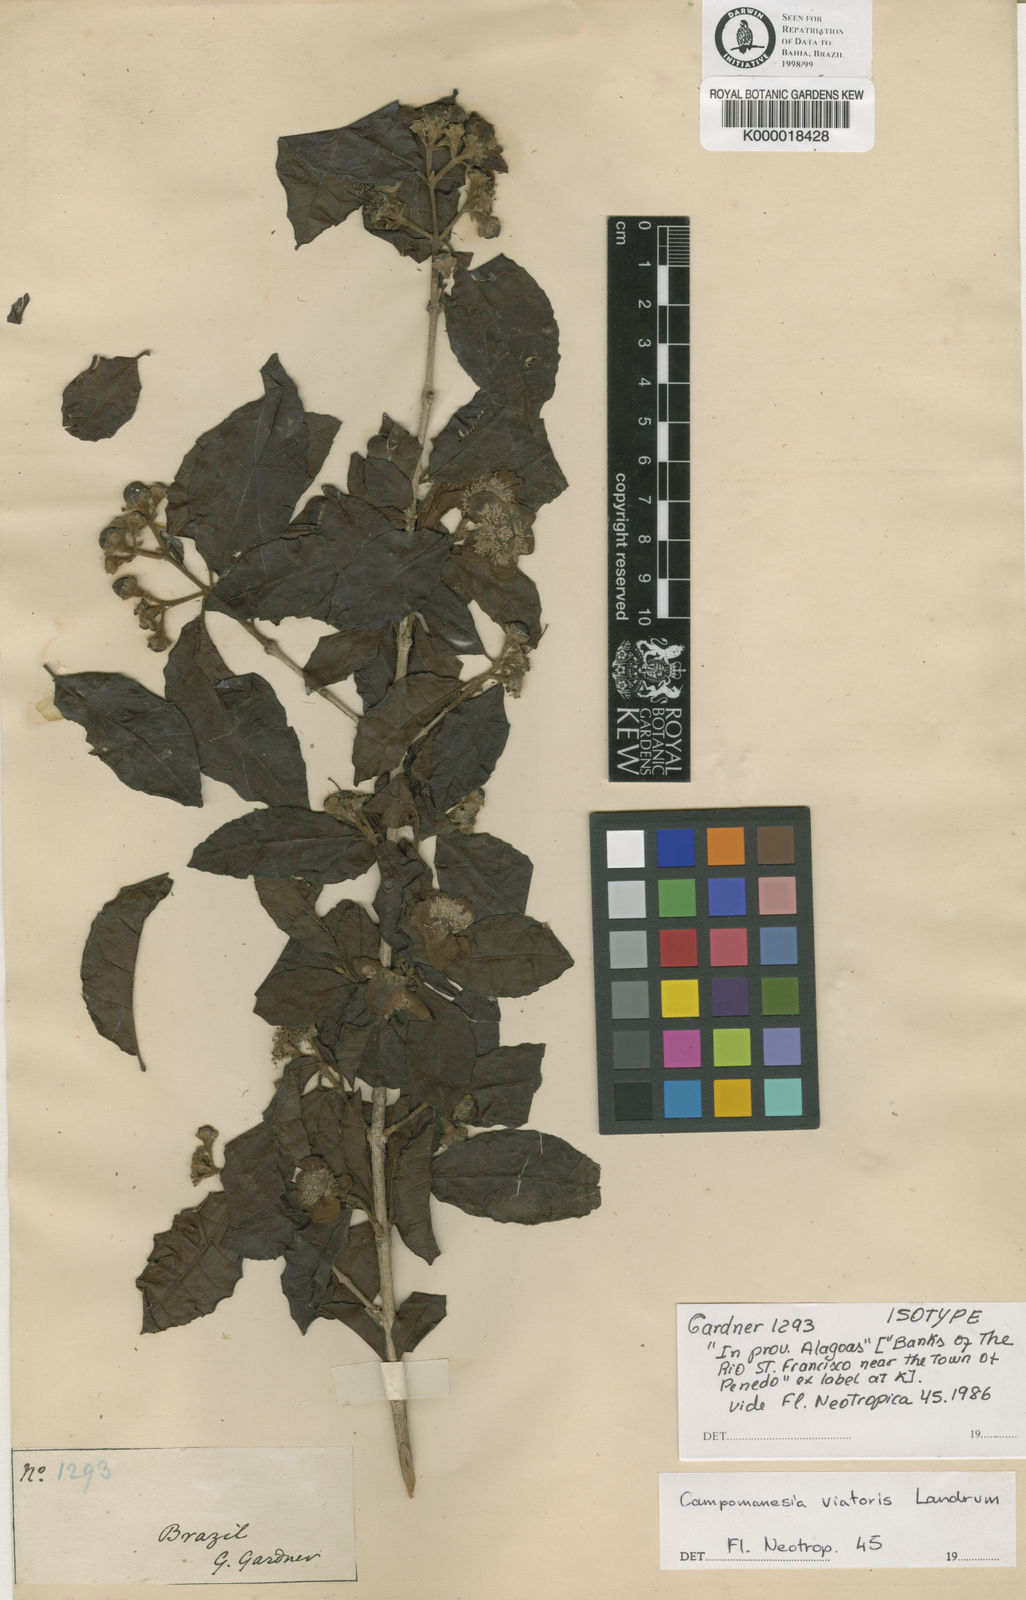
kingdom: Plantae
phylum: Tracheophyta
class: Magnoliopsida
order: Myrtales
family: Myrtaceae
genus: Campomanesia
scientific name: Campomanesia ilhoensis
